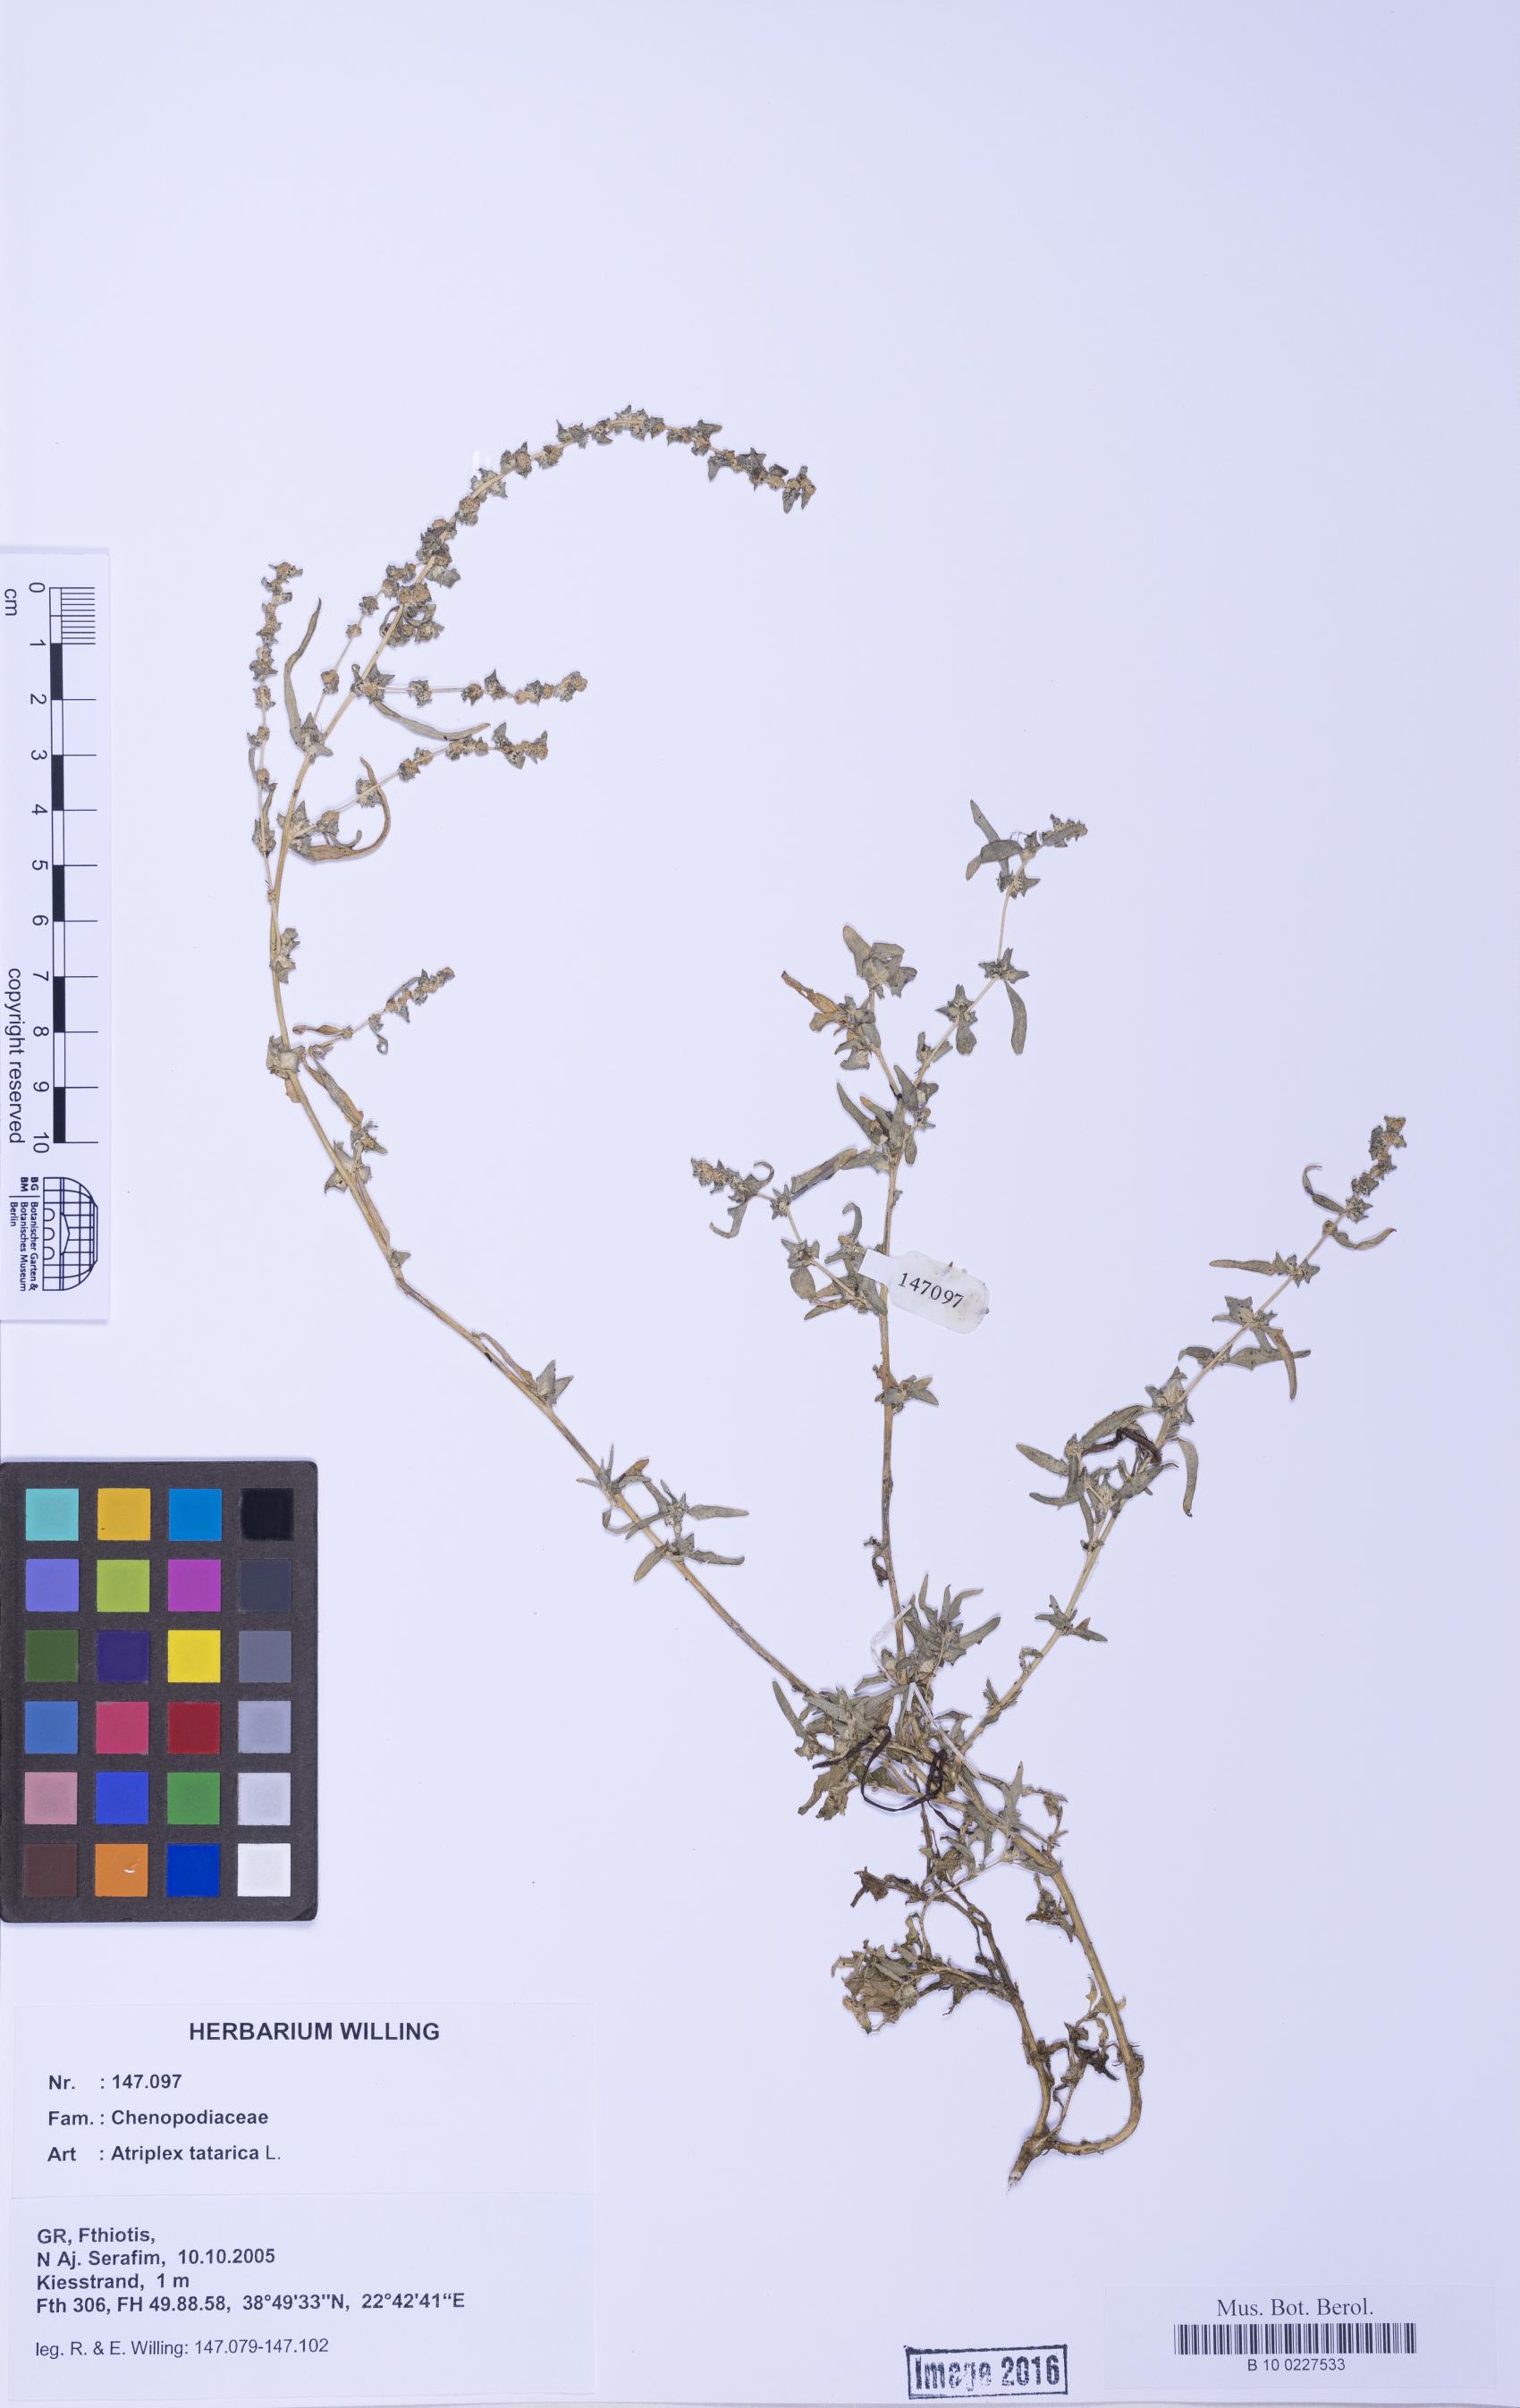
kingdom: Plantae
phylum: Tracheophyta
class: Magnoliopsida
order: Caryophyllales
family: Amaranthaceae
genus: Atriplex
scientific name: Atriplex tatarica
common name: Tatarian orache
